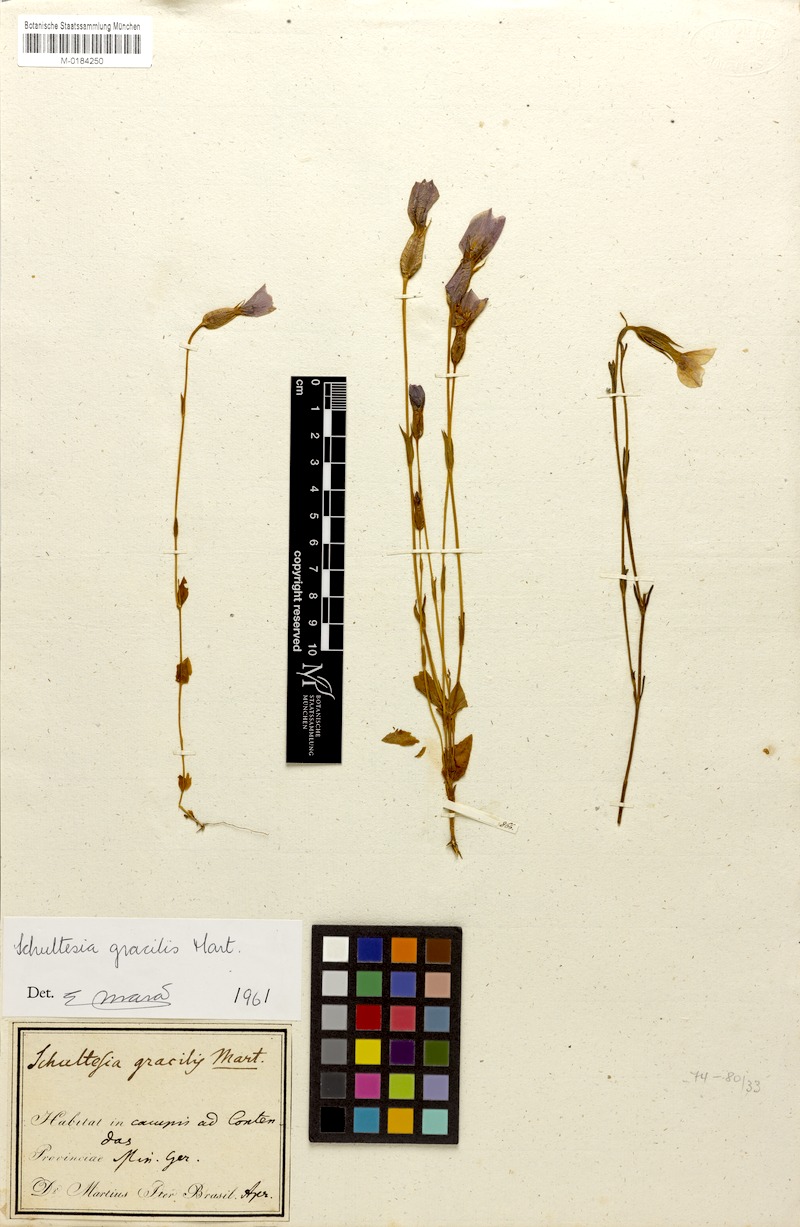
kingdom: Plantae
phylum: Tracheophyta
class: Magnoliopsida
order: Gentianales
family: Gentianaceae
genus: Schultesia
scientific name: Schultesia gracilis
